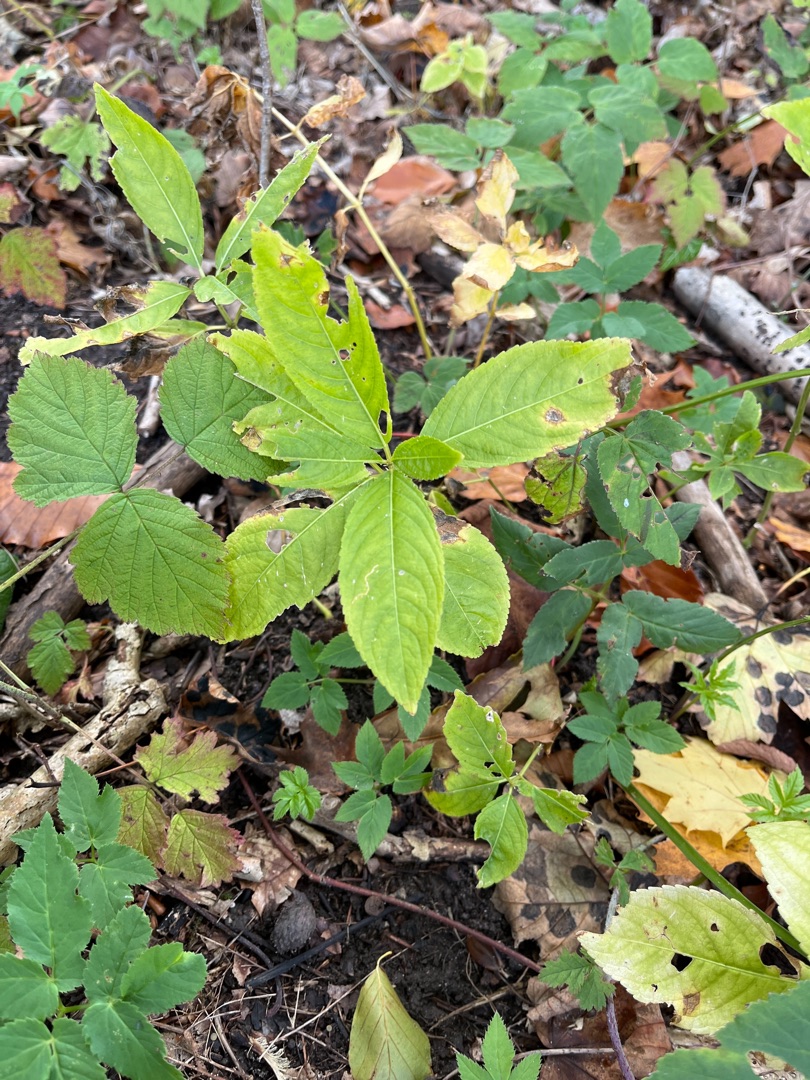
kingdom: Plantae
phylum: Tracheophyta
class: Magnoliopsida
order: Malpighiales
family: Euphorbiaceae
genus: Mercurialis
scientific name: Mercurialis perennis
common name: Almindelig bingelurt
